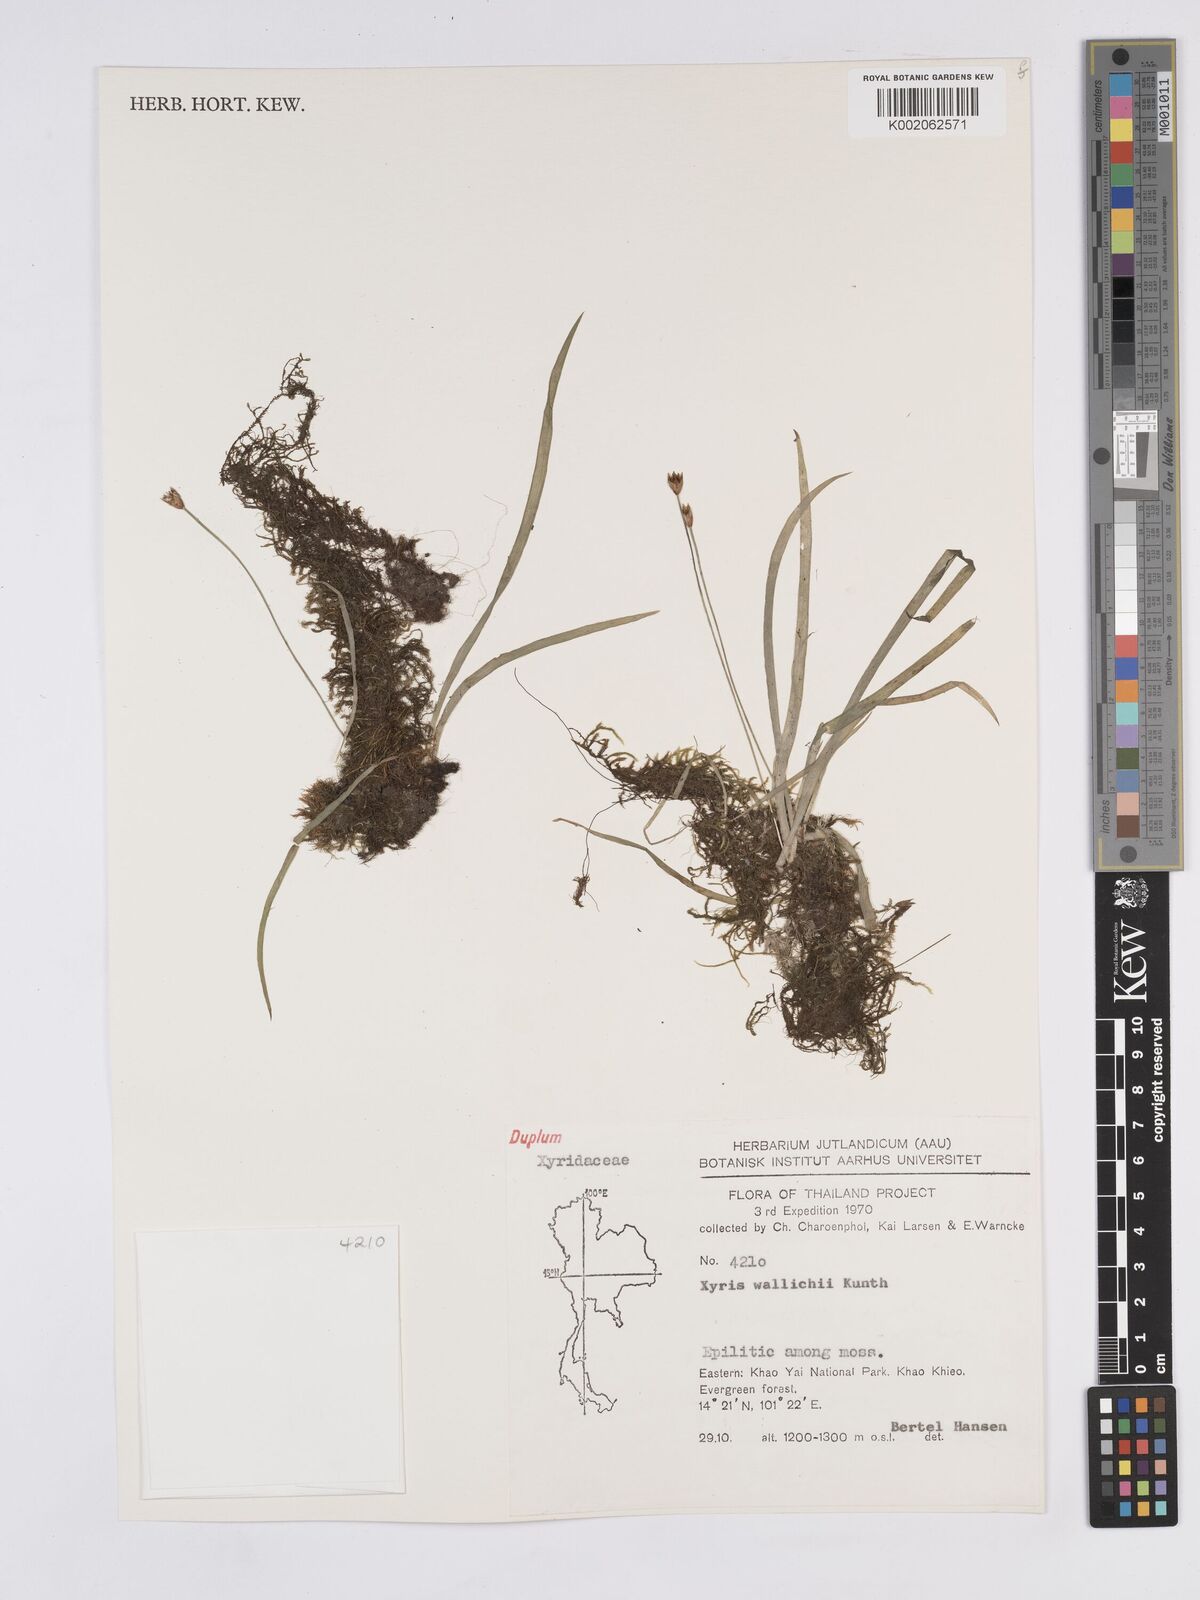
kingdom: Plantae
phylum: Tracheophyta
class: Liliopsida
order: Poales
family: Xyridaceae
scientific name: Xyridaceae
